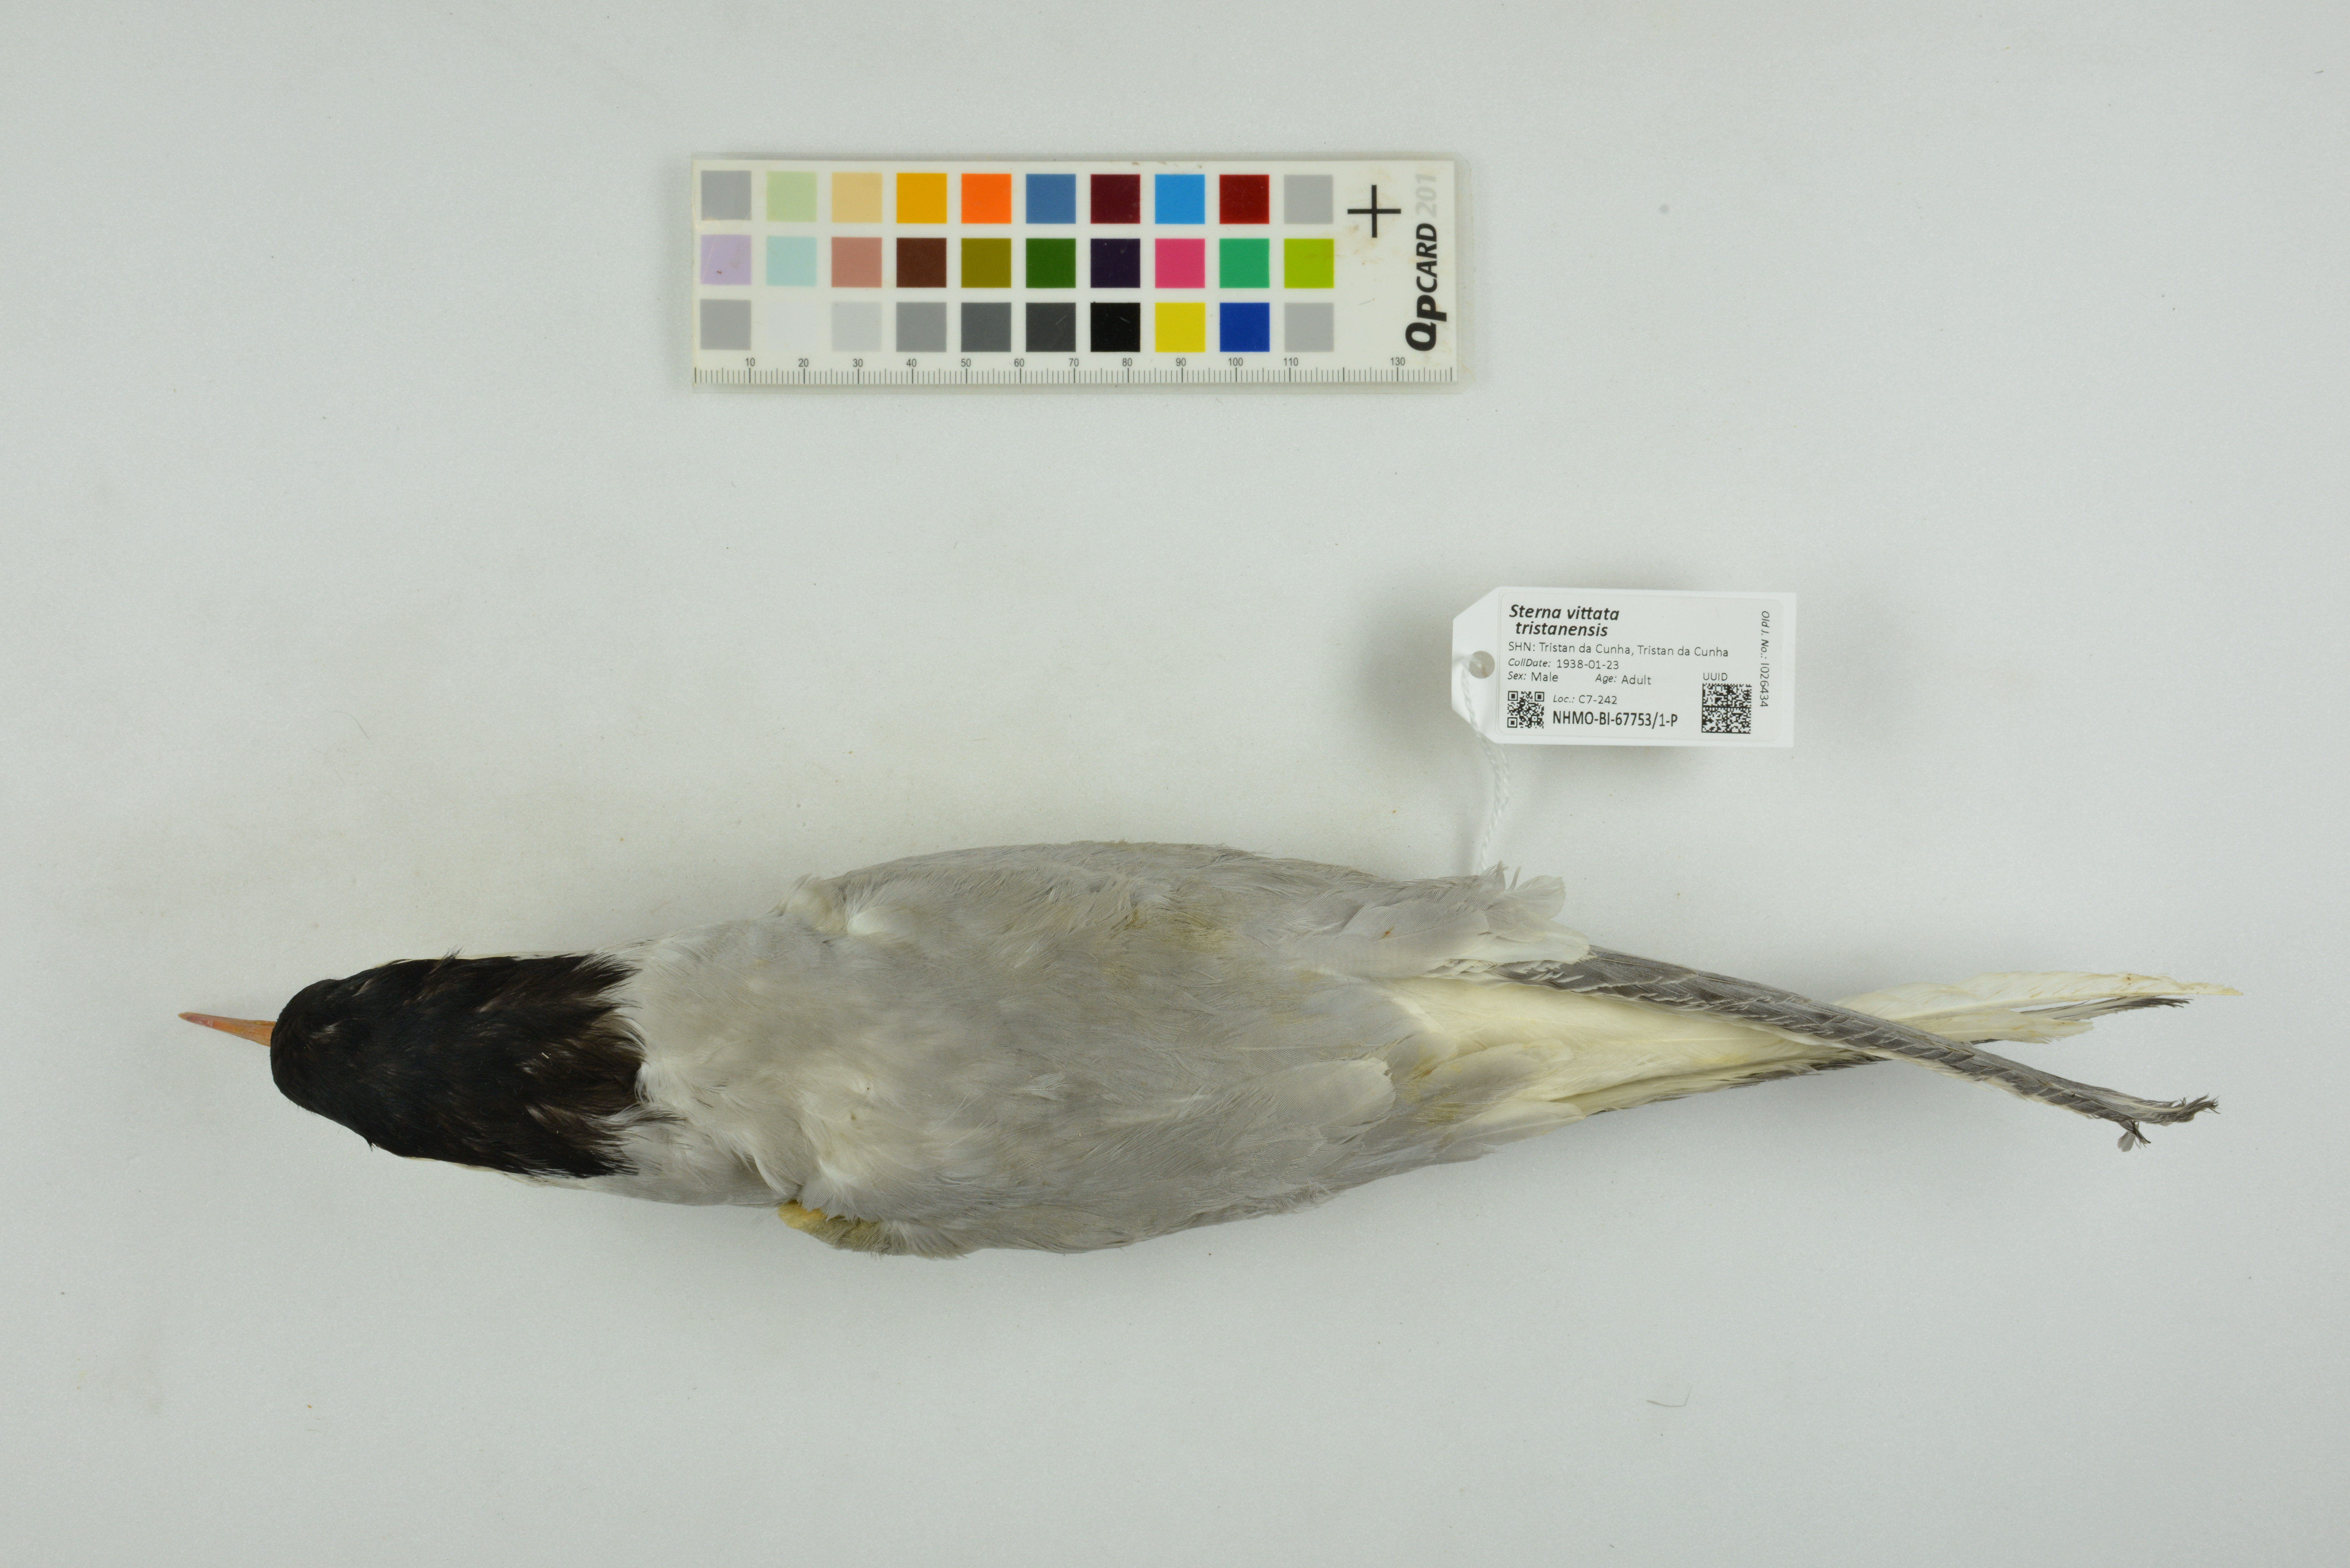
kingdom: Animalia
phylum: Chordata
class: Aves
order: Charadriiformes
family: Laridae
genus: Sterna
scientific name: Sterna vittata
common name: Antarctic tern
